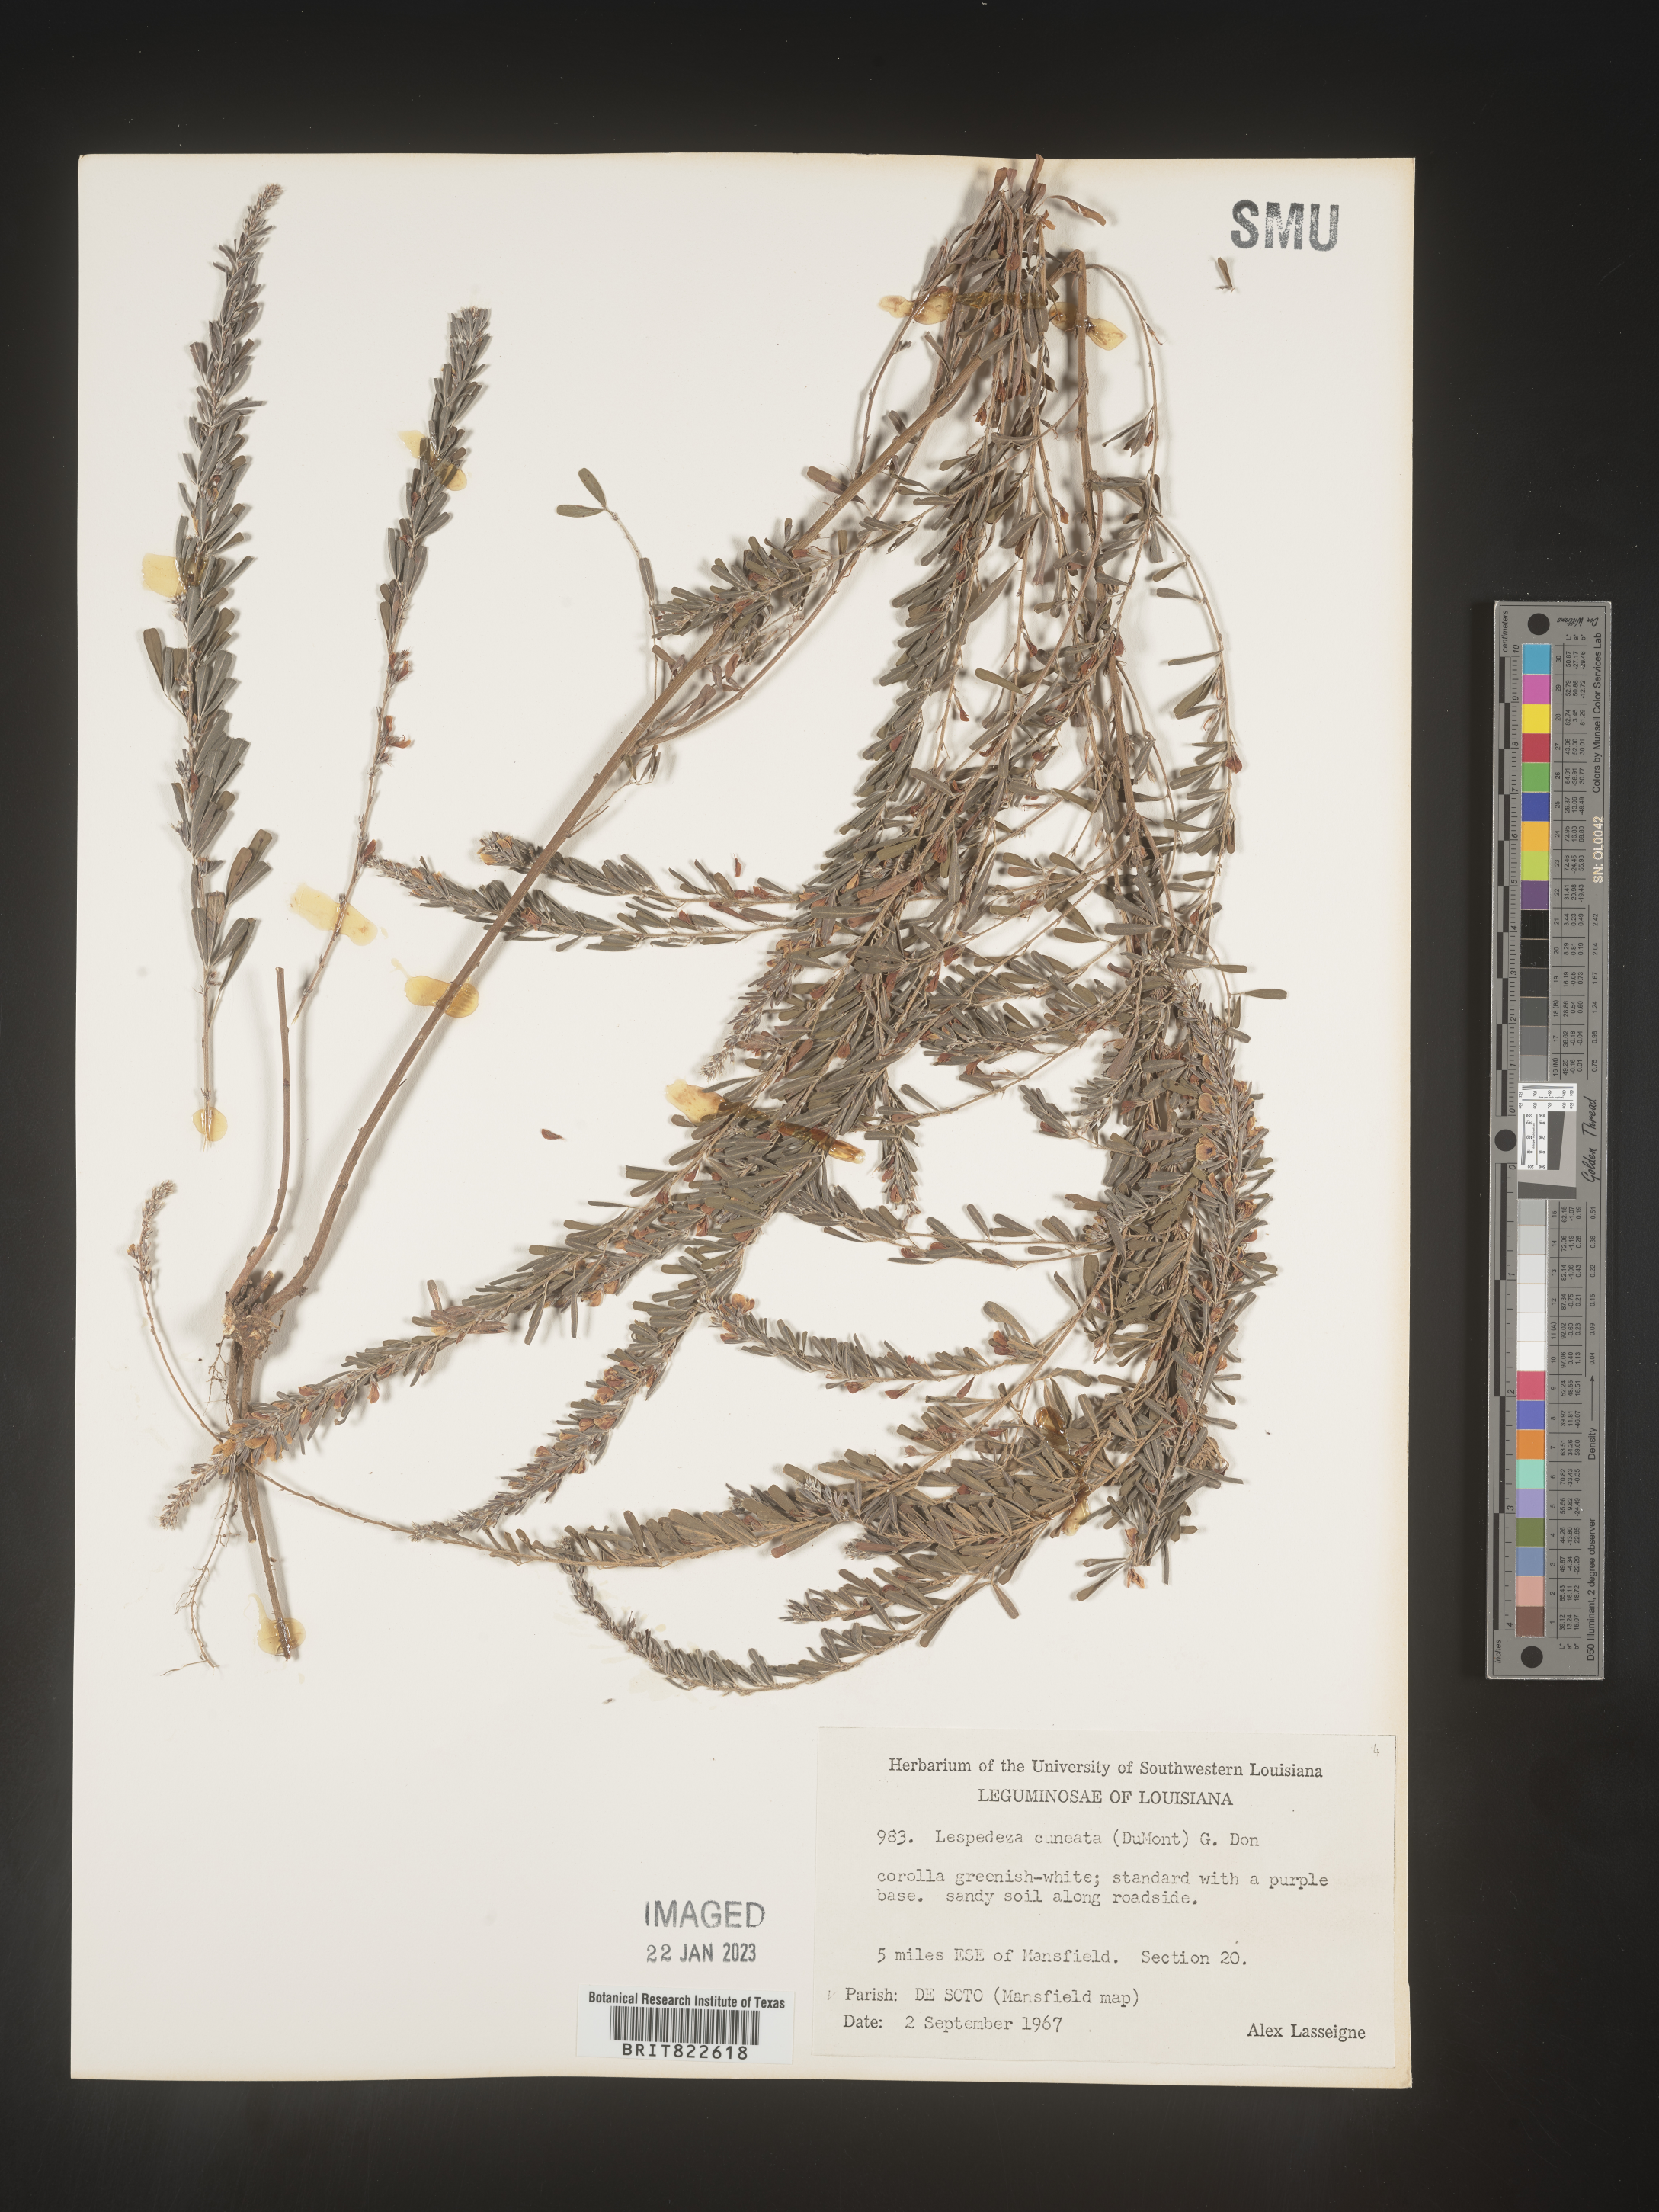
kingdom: Plantae
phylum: Tracheophyta
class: Magnoliopsida
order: Fabales
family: Fabaceae
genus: Lespedeza
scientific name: Lespedeza cuneata
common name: Chinese bush-clover
